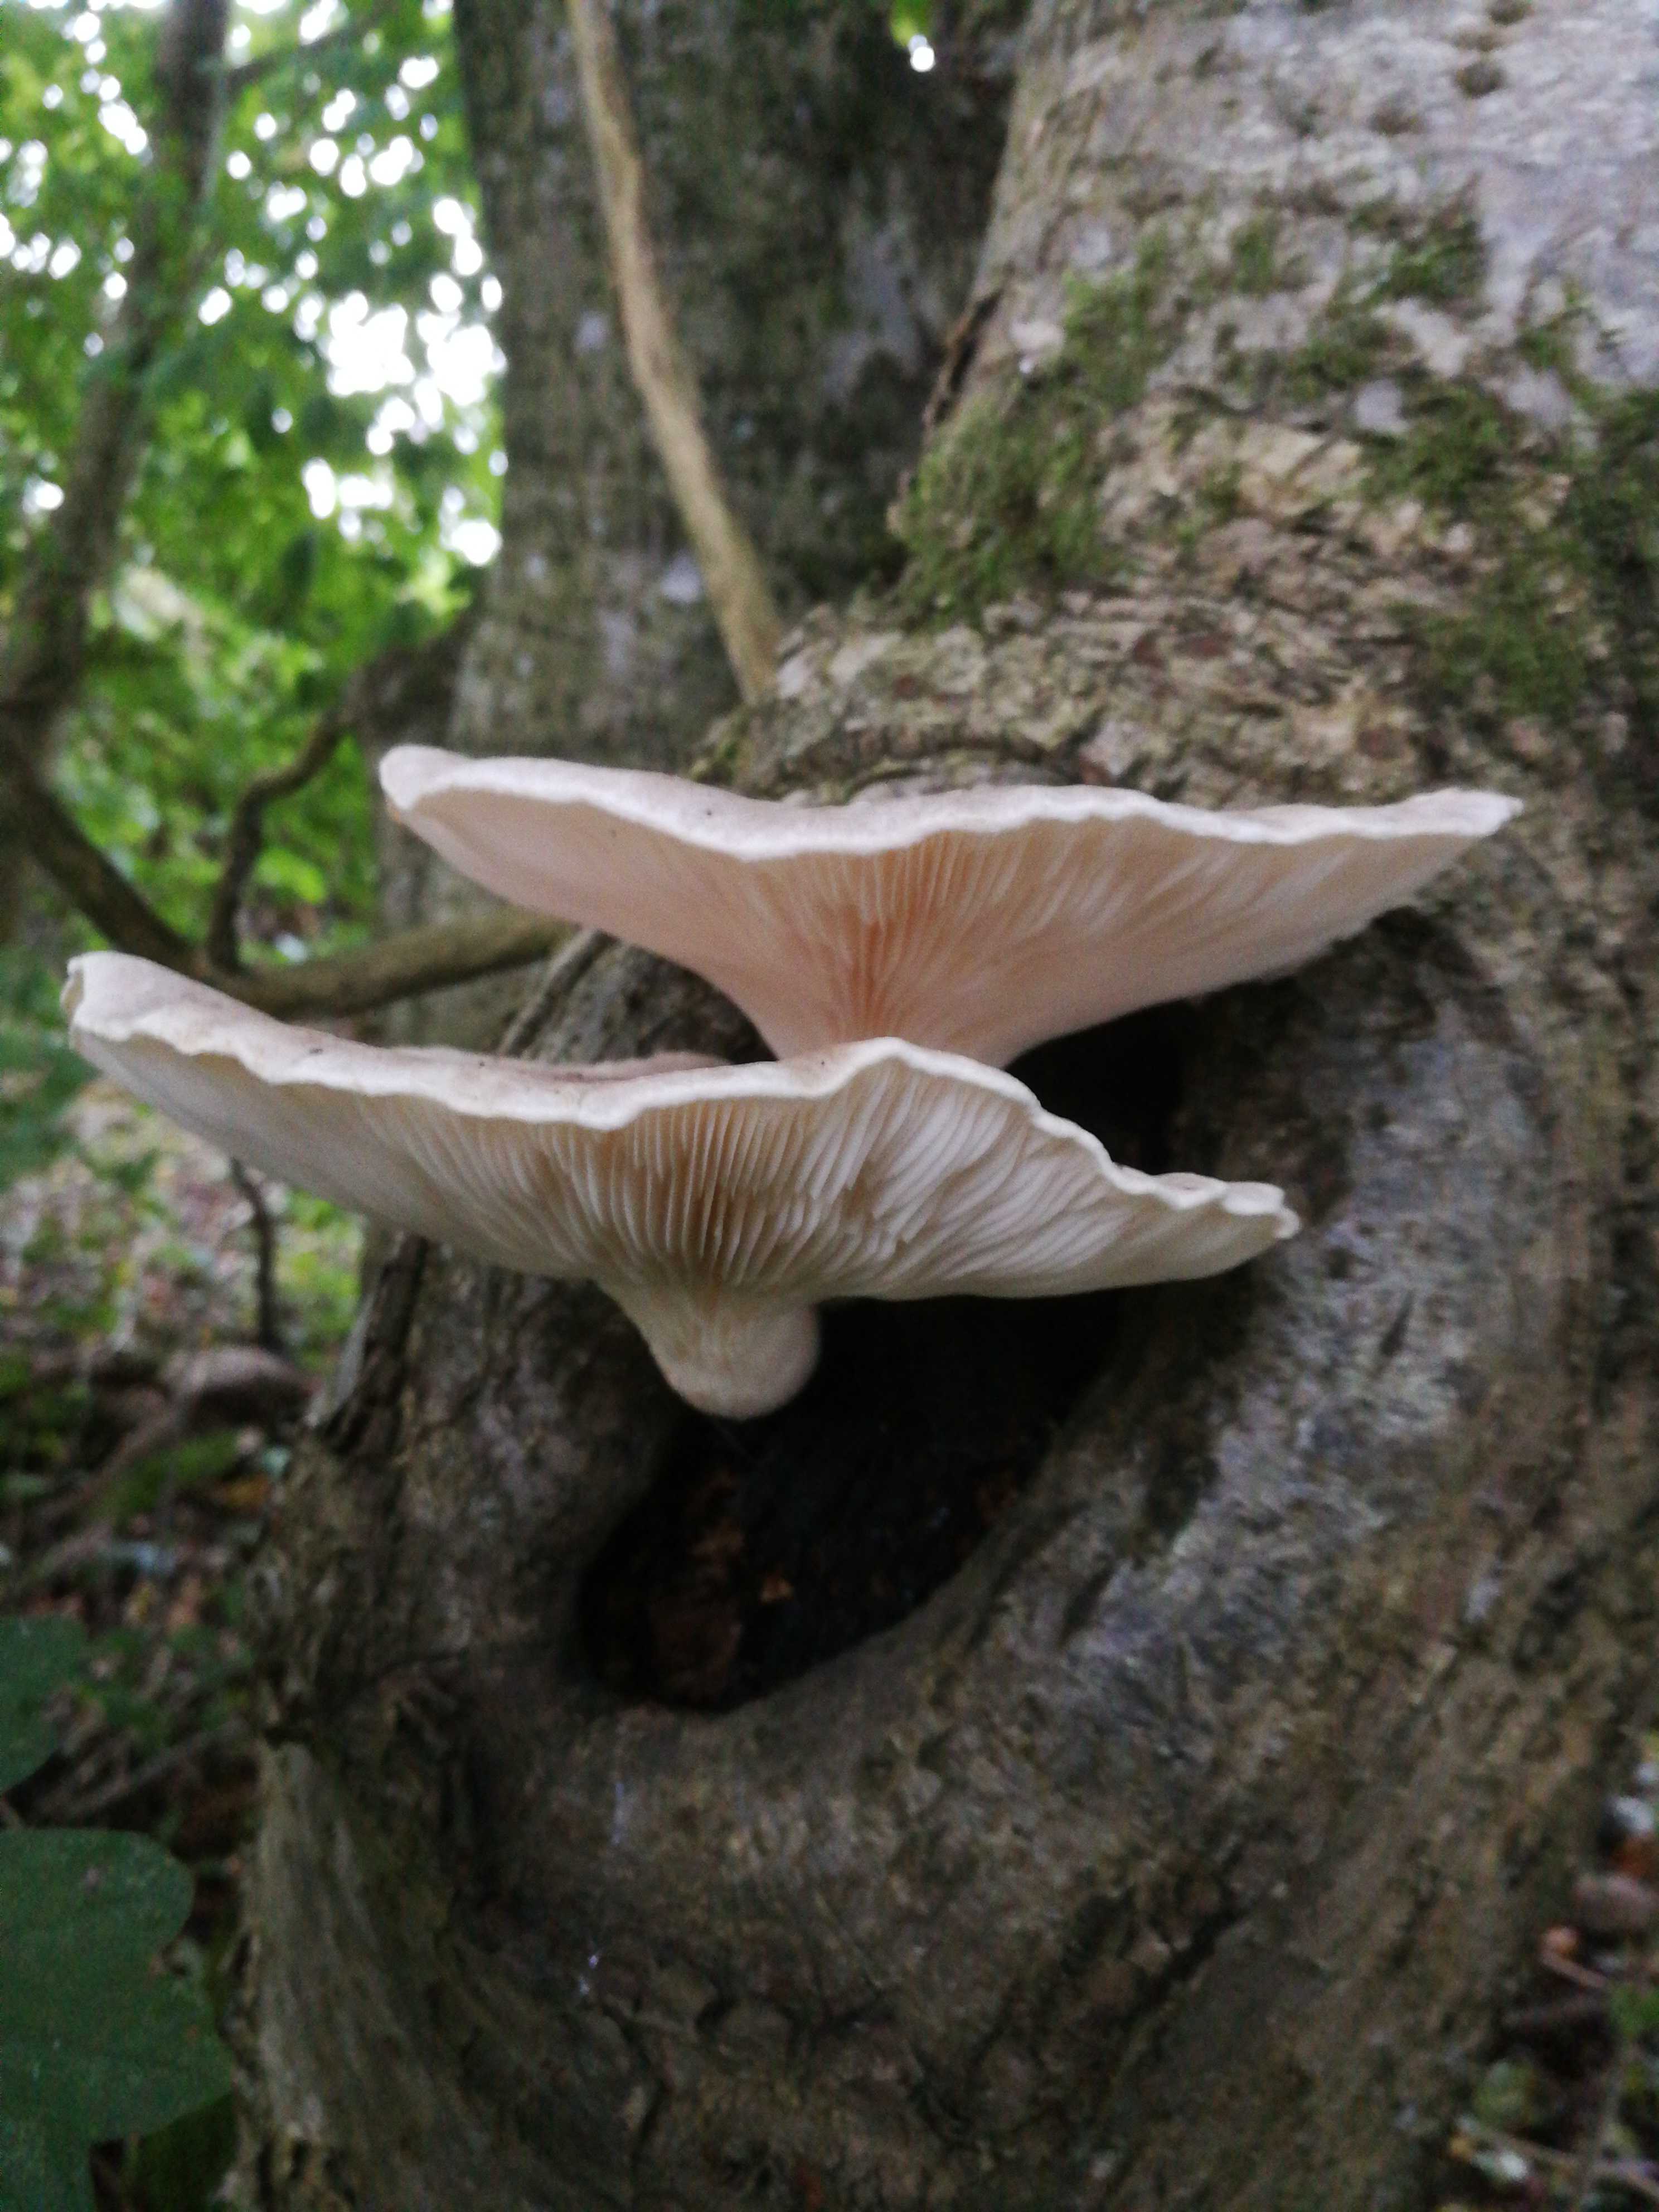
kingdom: Fungi
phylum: Basidiomycota
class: Agaricomycetes
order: Agaricales
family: Pleurotaceae
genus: Pleurotus
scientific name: Pleurotus
